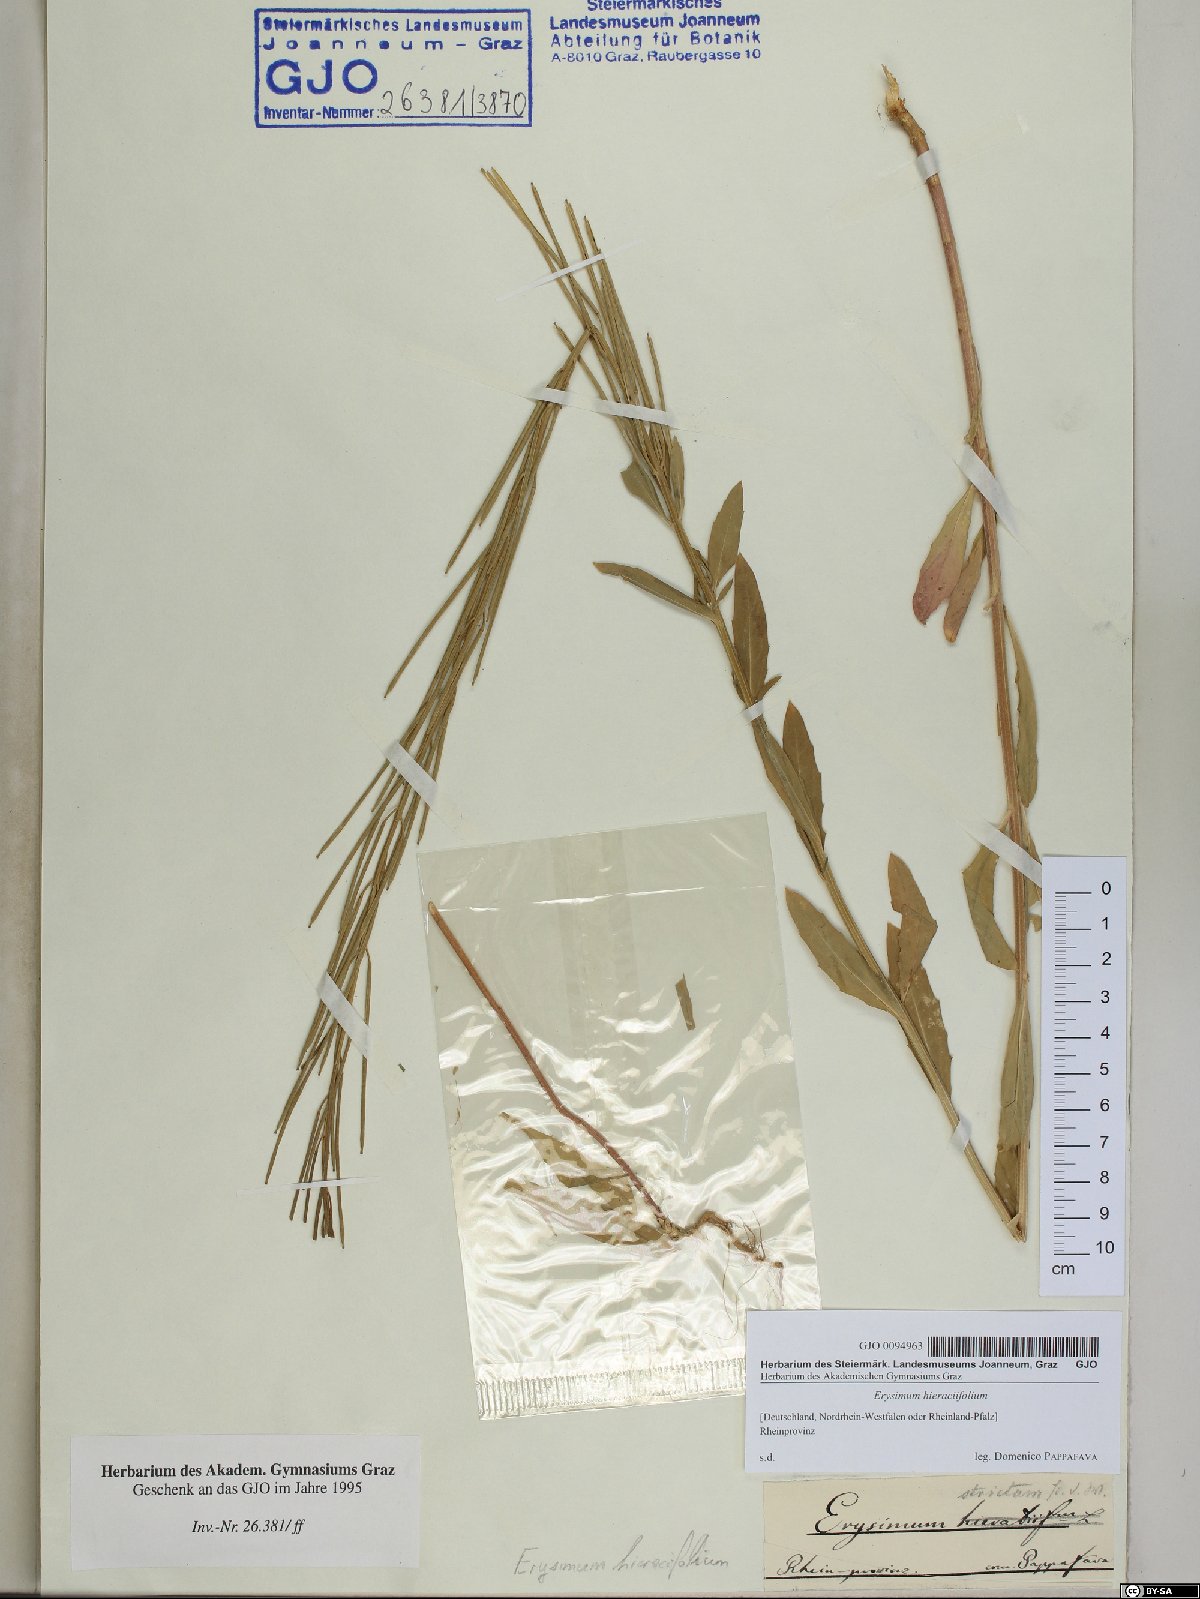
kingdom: Plantae
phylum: Tracheophyta
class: Magnoliopsida
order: Brassicales
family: Brassicaceae
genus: Erysimum
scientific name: Erysimum hieraciifolium
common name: European wallflower
